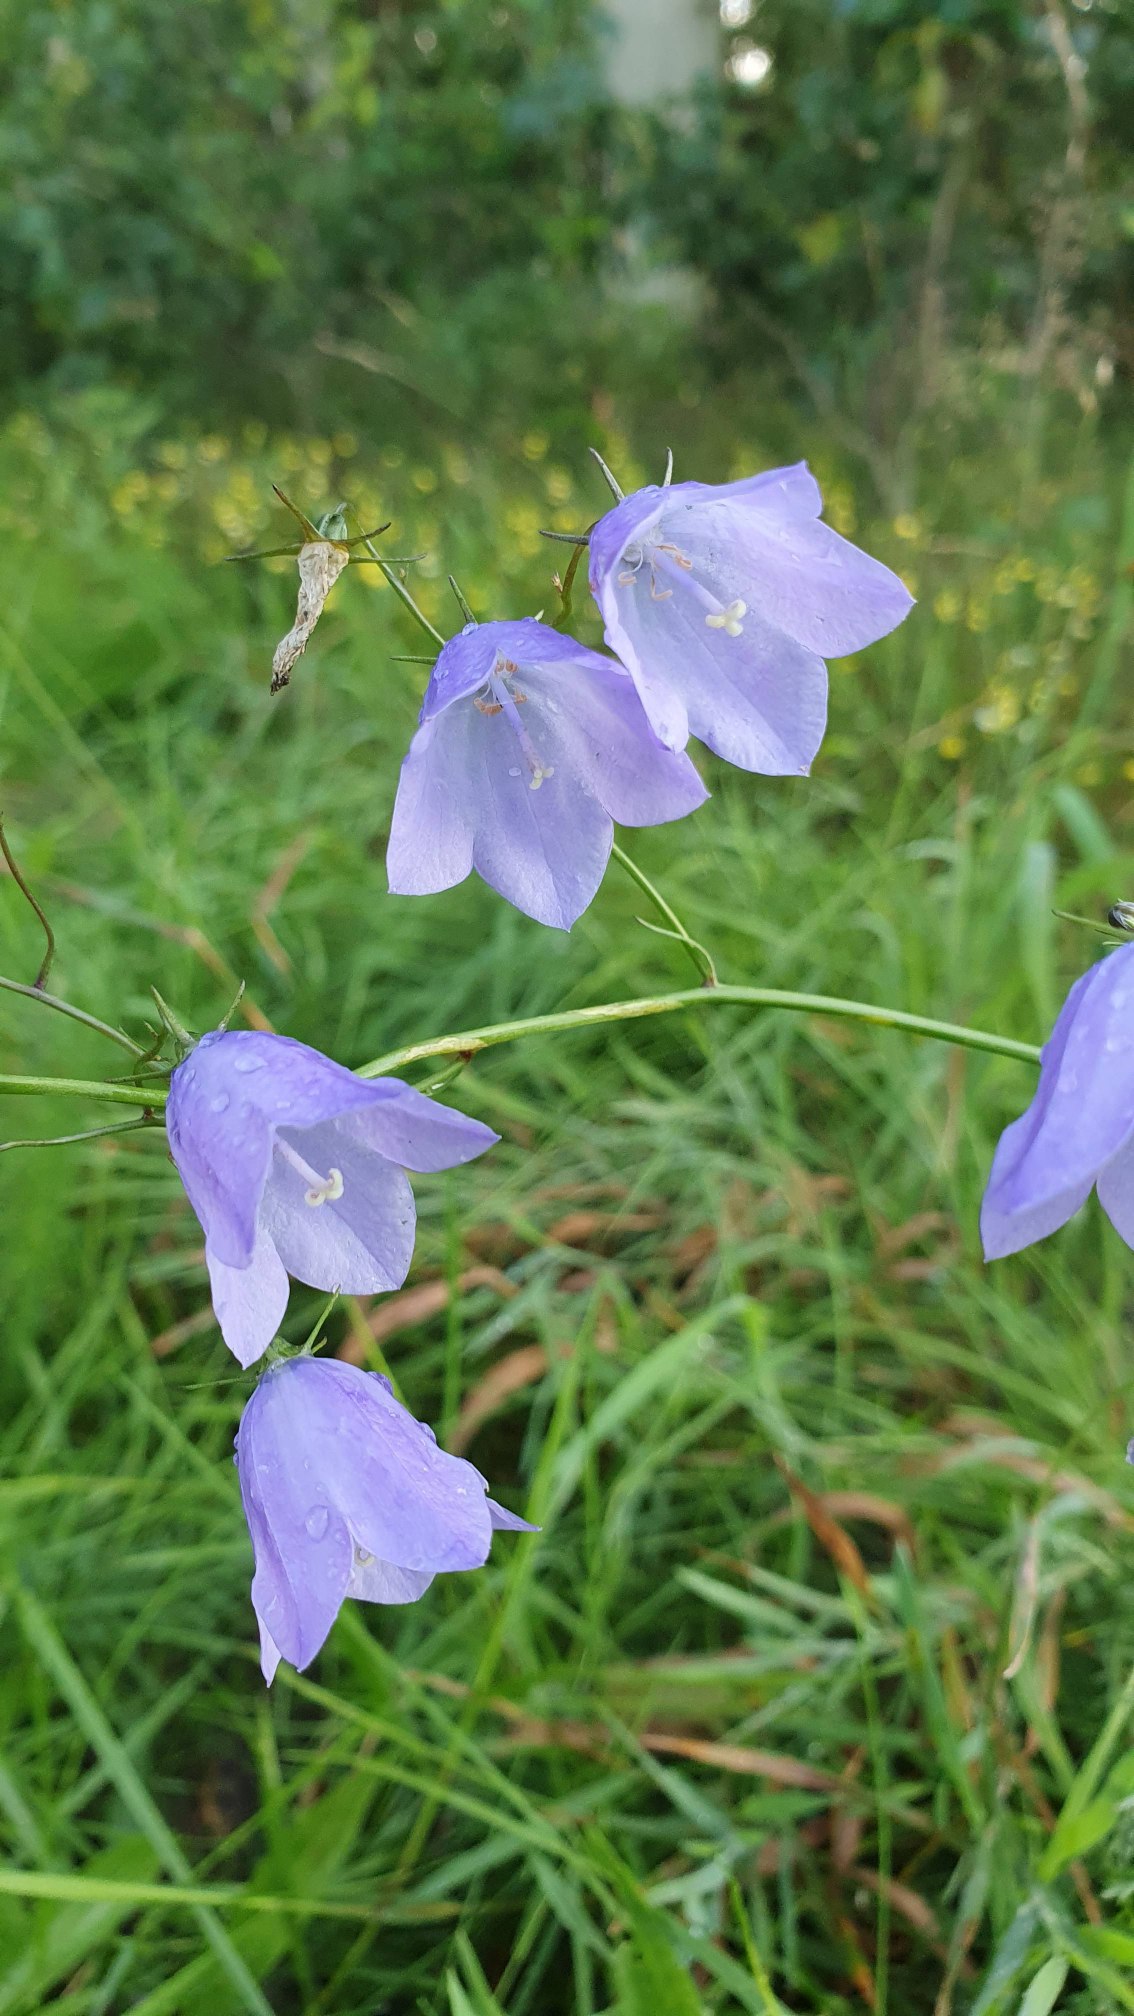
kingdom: Plantae
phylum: Tracheophyta
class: Magnoliopsida
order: Asterales
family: Campanulaceae
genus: Campanula
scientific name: Campanula rotundifolia
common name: Liden klokke
